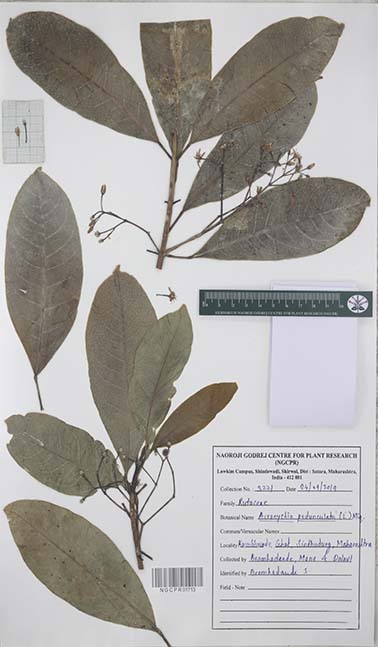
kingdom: Plantae
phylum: Tracheophyta
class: Magnoliopsida
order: Sapindales
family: Rutaceae
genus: Acronychia
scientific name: Acronychia pedunculata
